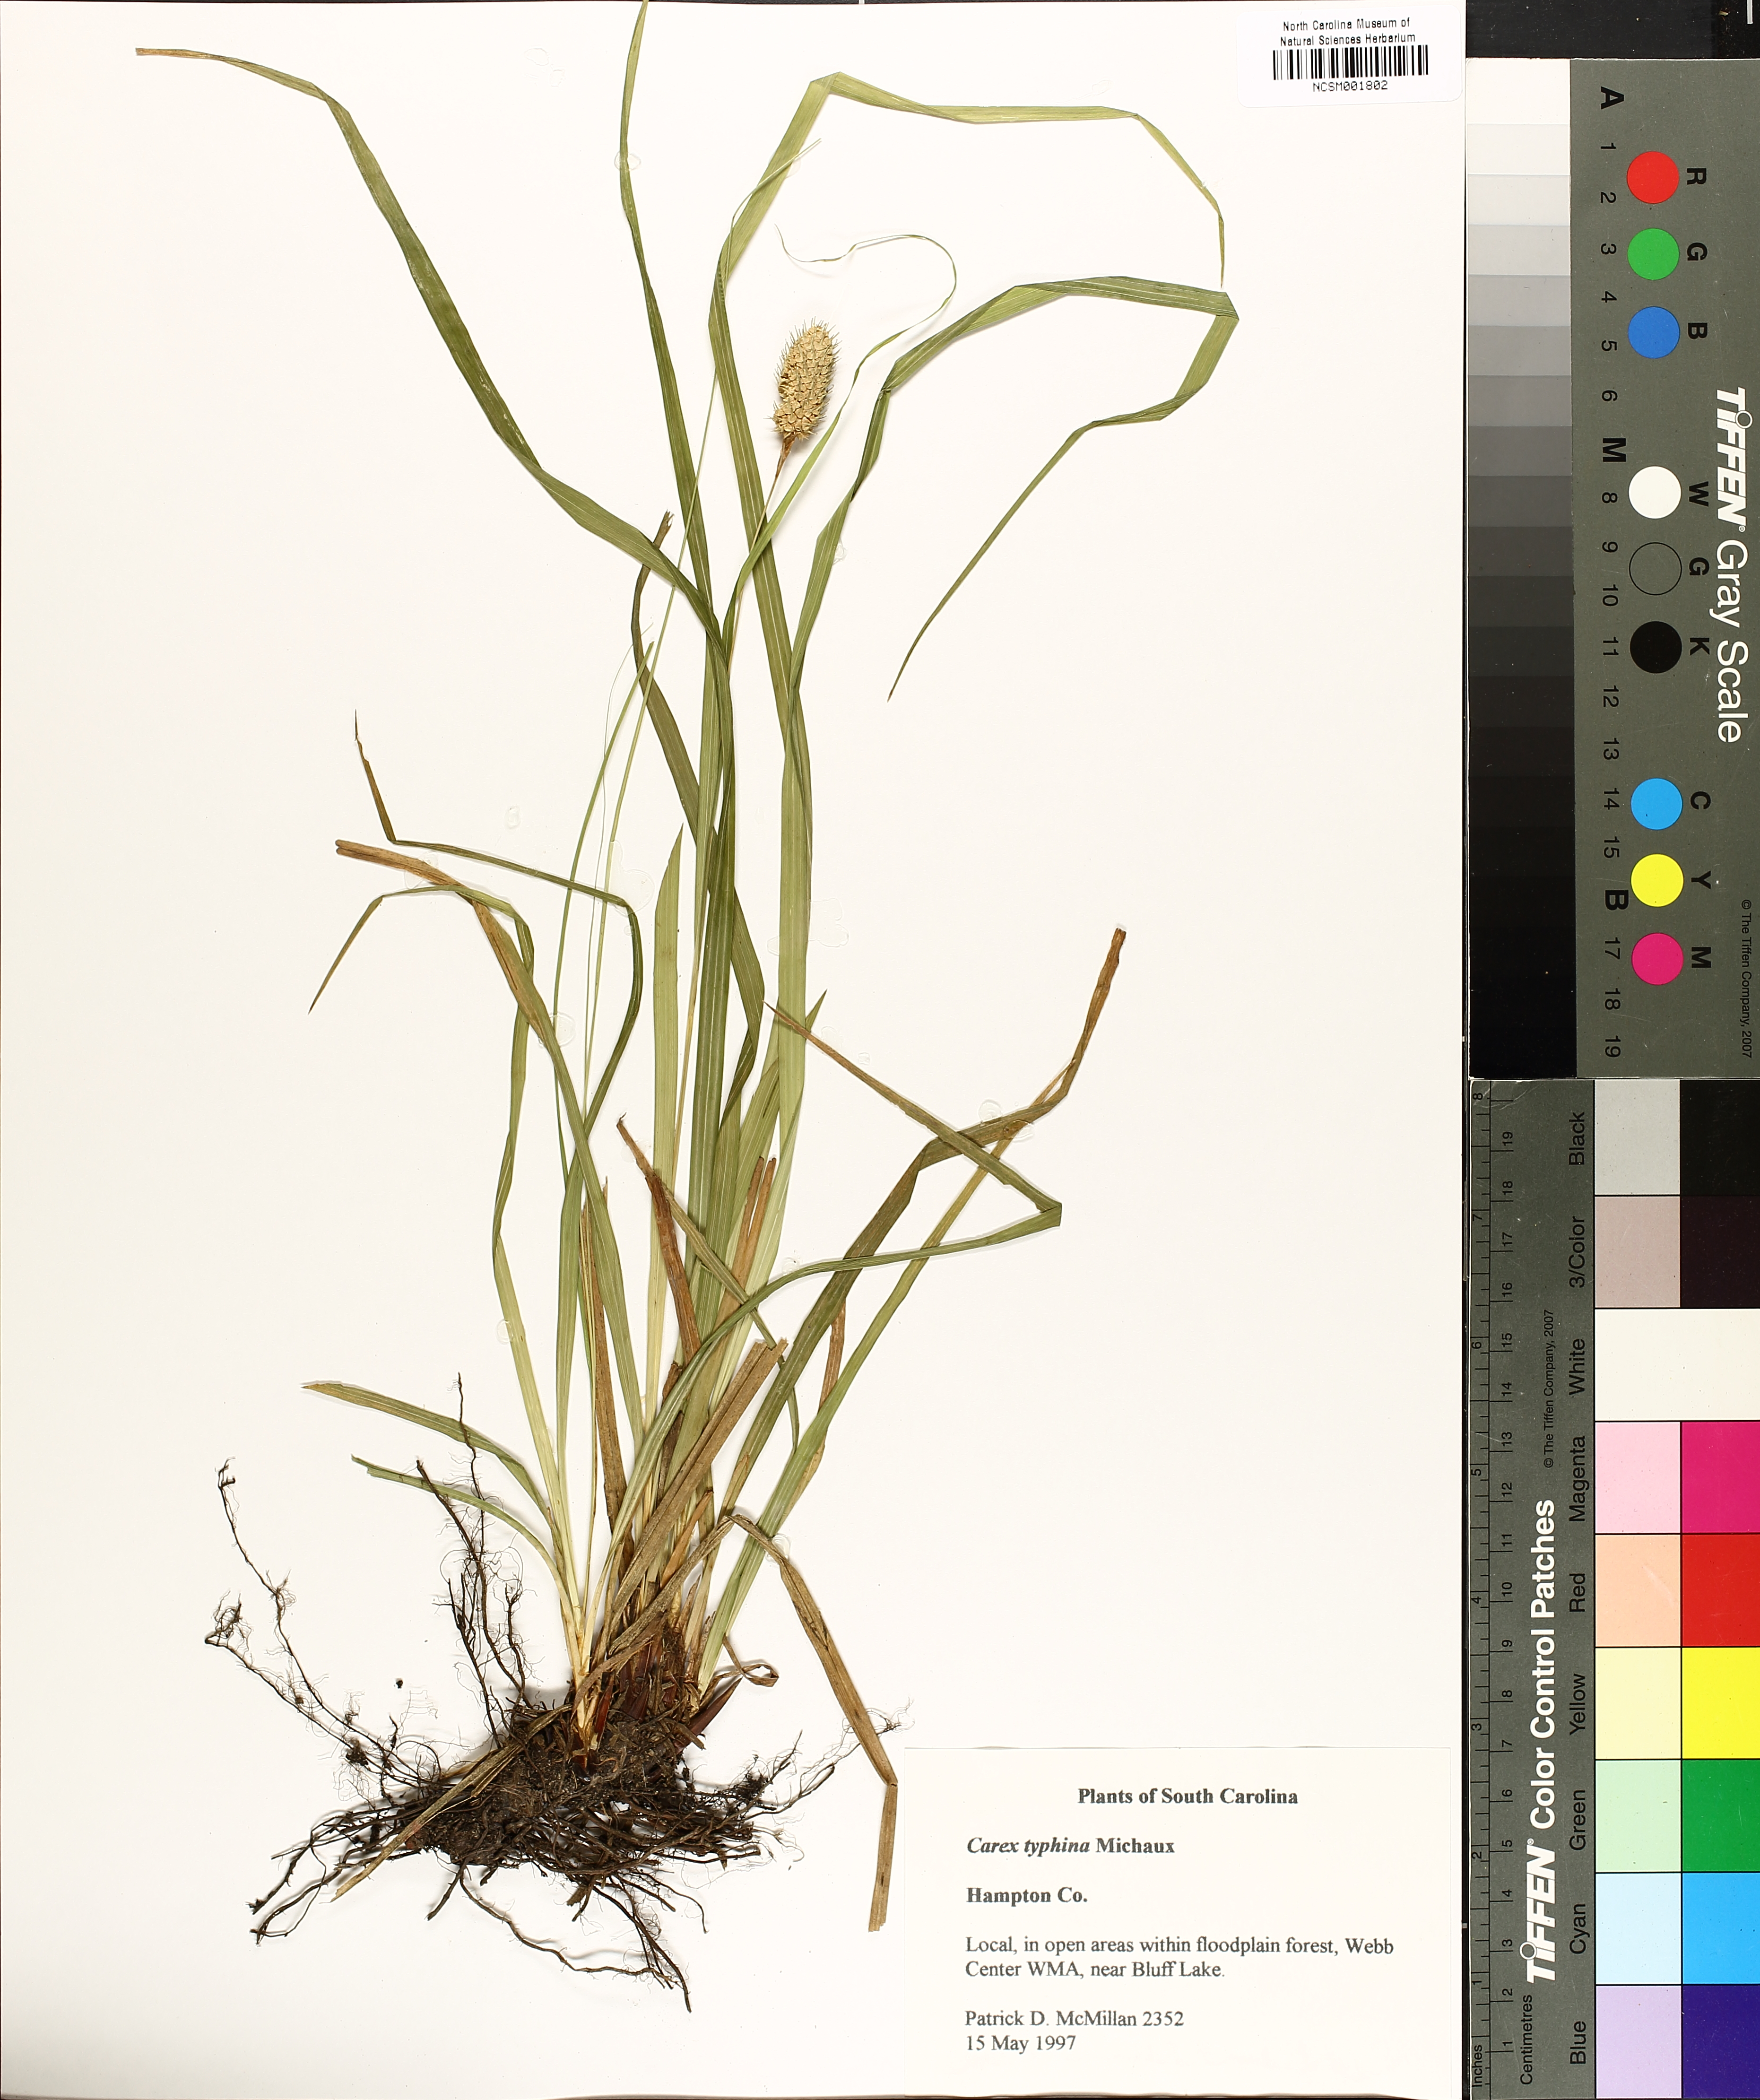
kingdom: Plantae
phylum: Tracheophyta
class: Liliopsida
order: Poales
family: Cyperaceae
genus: Carex
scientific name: Carex typhina
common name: Cattail sedge
